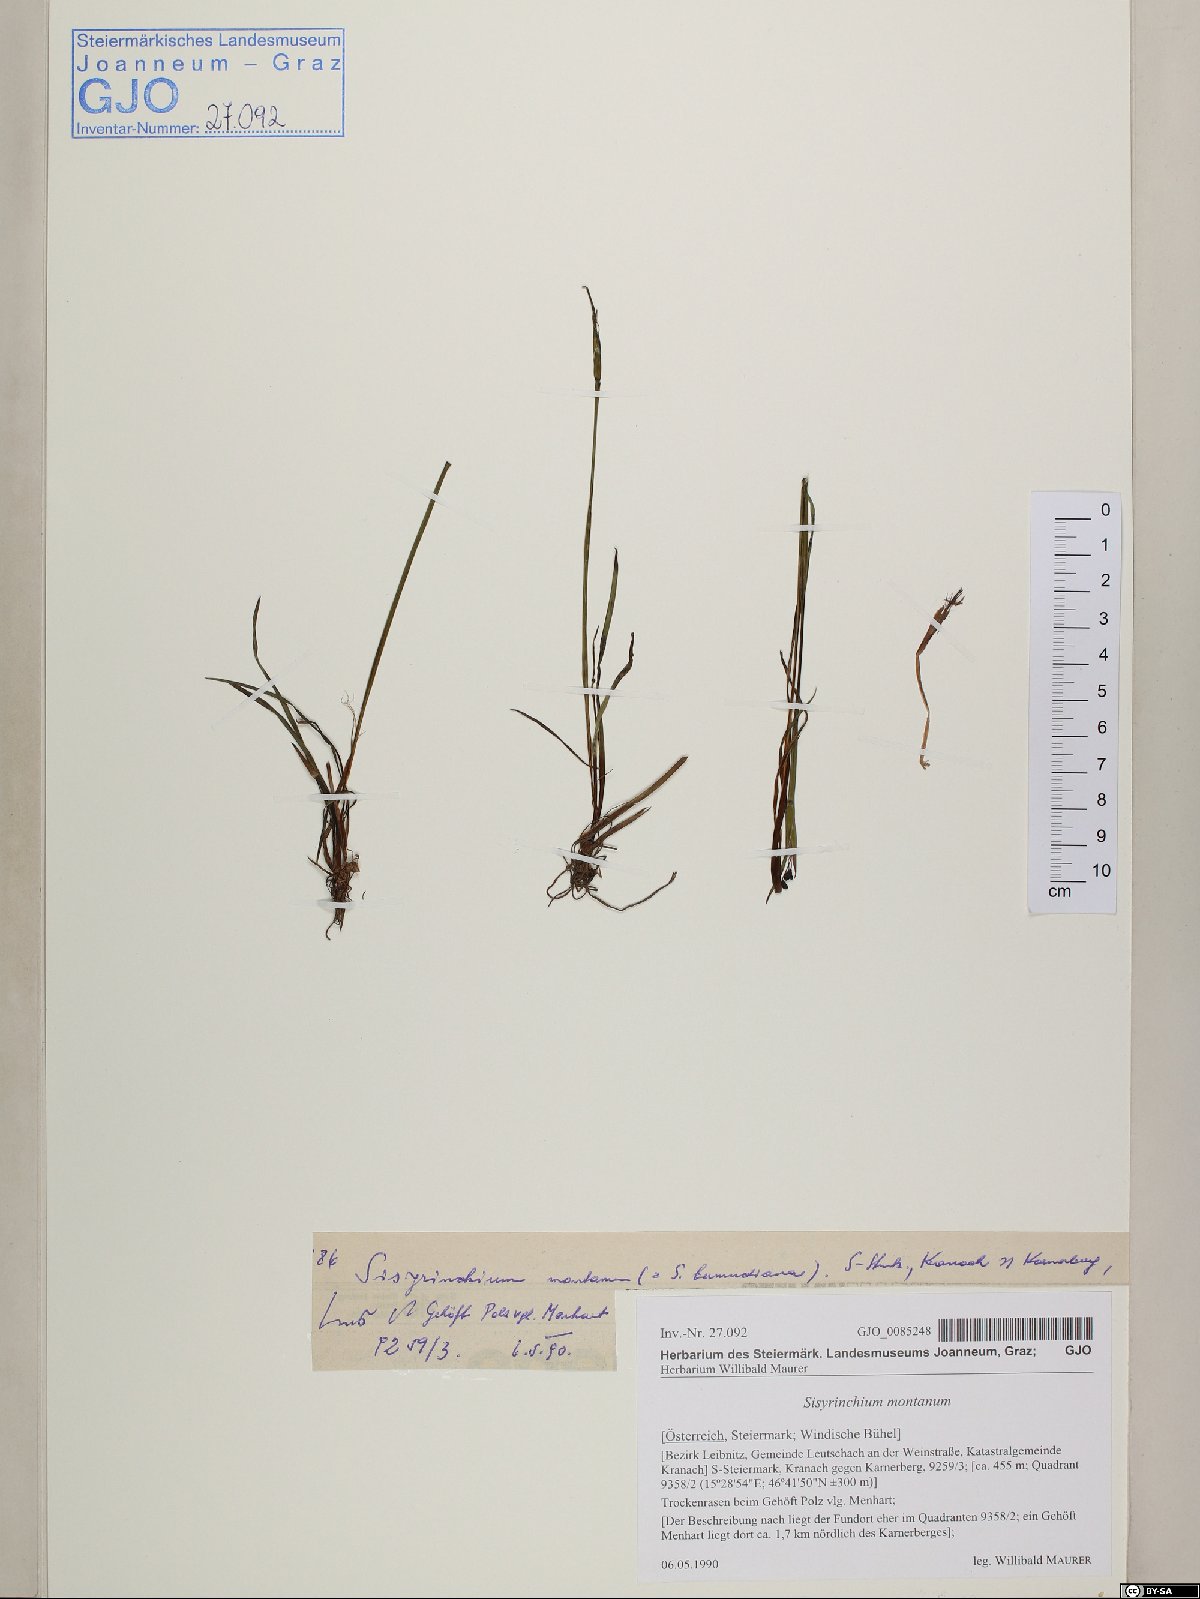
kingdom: Plantae
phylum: Tracheophyta
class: Liliopsida
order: Asparagales
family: Iridaceae
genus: Sisyrinchium
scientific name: Sisyrinchium montanum
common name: American blue-eyed-grass
